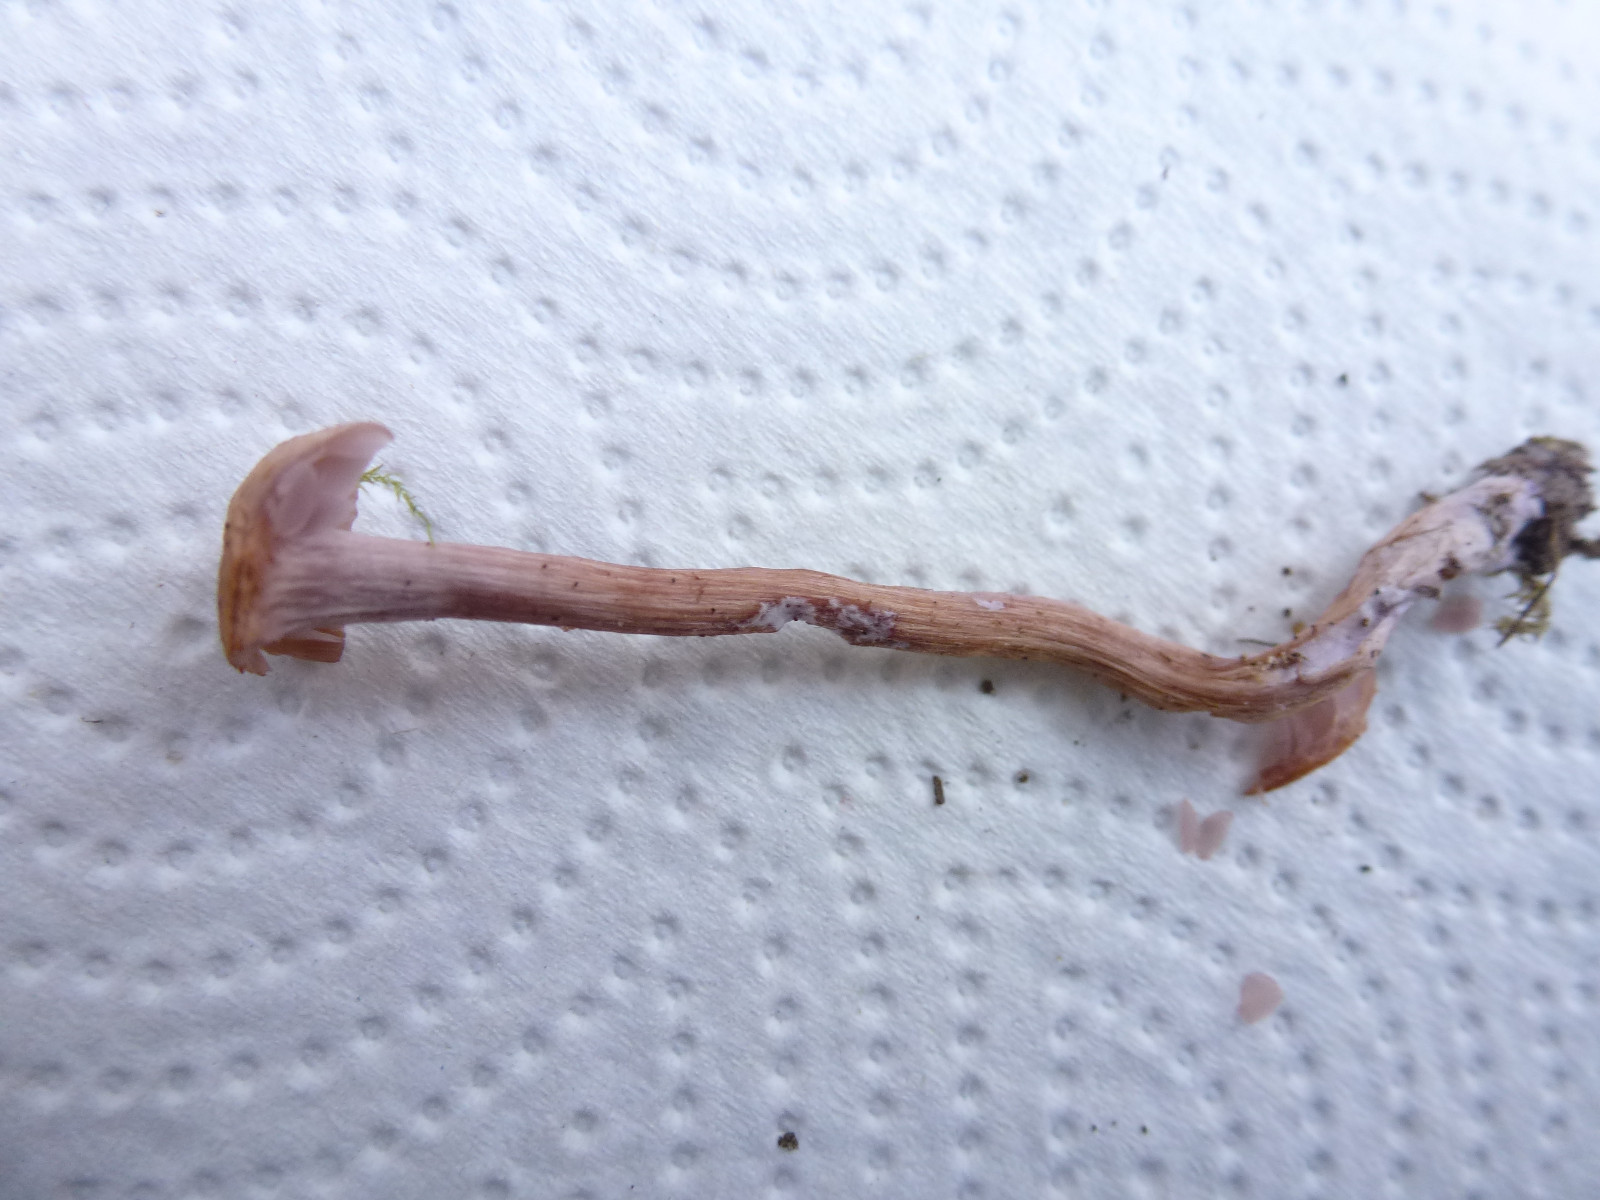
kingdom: Fungi
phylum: Basidiomycota
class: Agaricomycetes
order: Agaricales
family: Hydnangiaceae
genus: Laccaria
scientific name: Laccaria bicolor
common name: tvefarvet ametysthat
